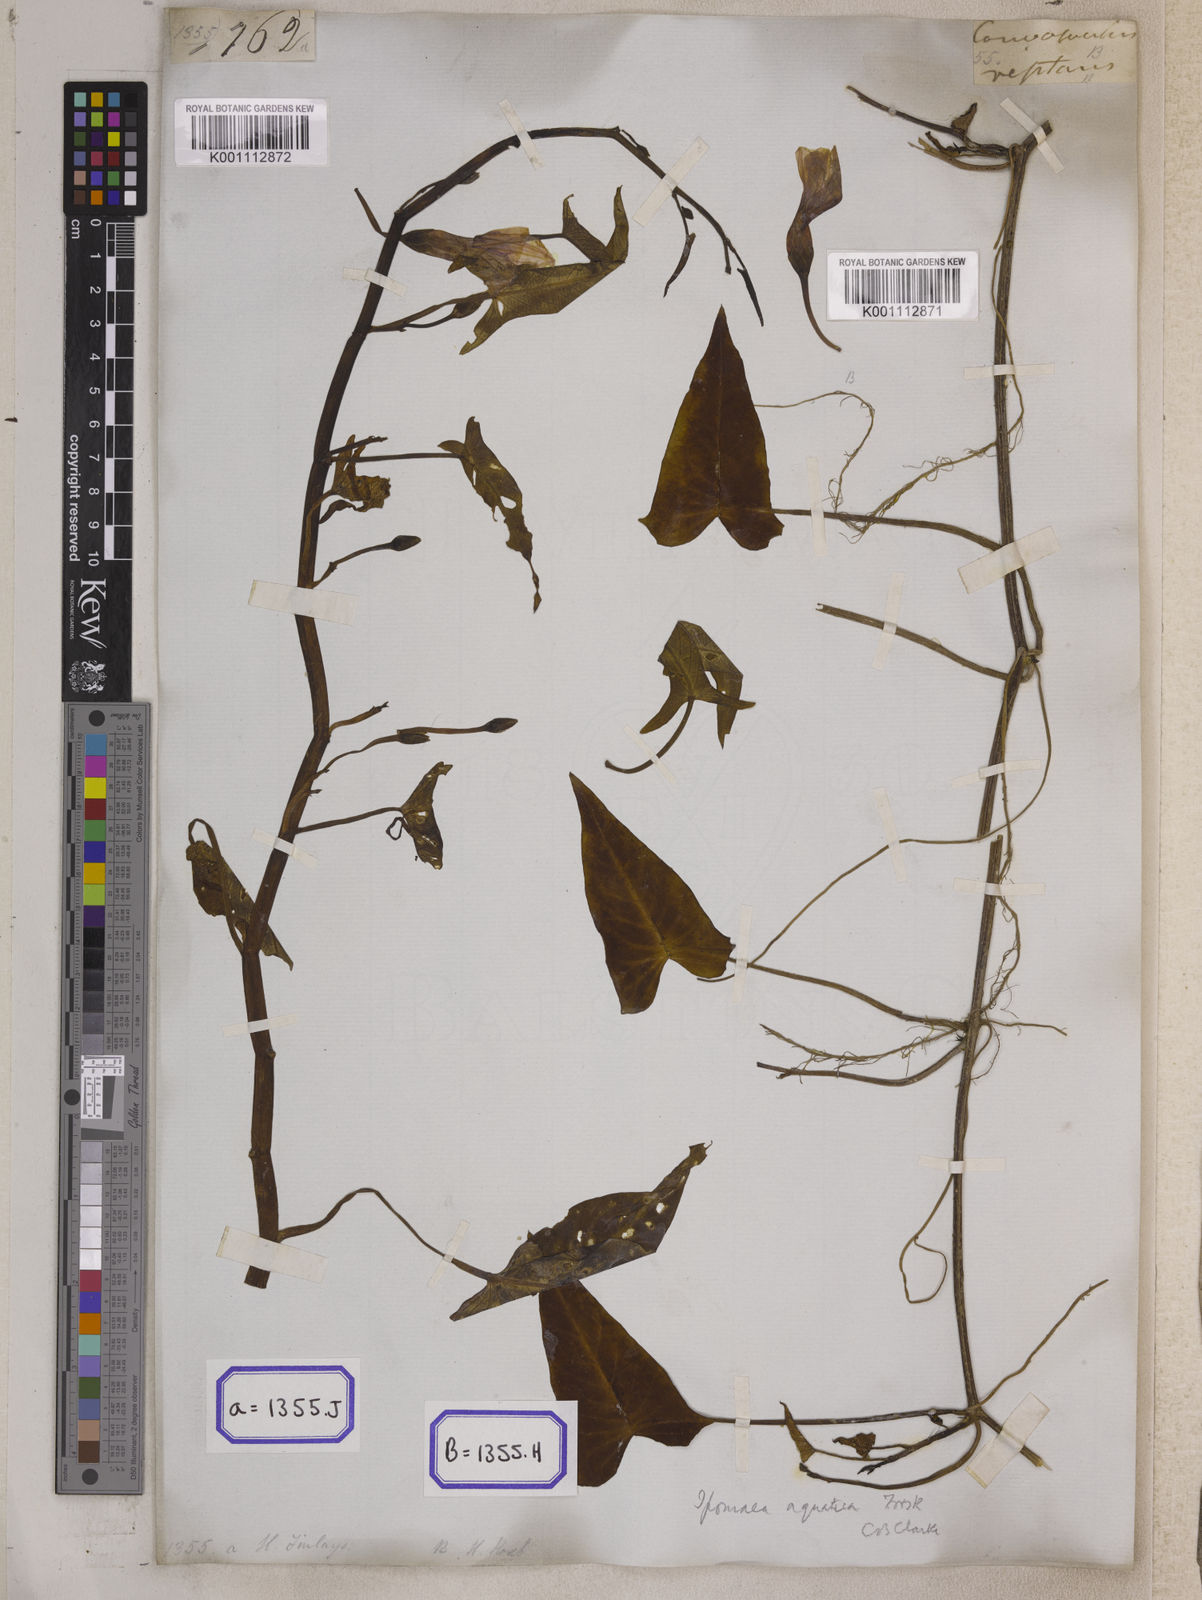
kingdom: Plantae
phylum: Tracheophyta
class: Magnoliopsida
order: Solanales
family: Convolvulaceae
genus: Calystegia
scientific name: Calystegia sepium
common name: Hedge bindweed
